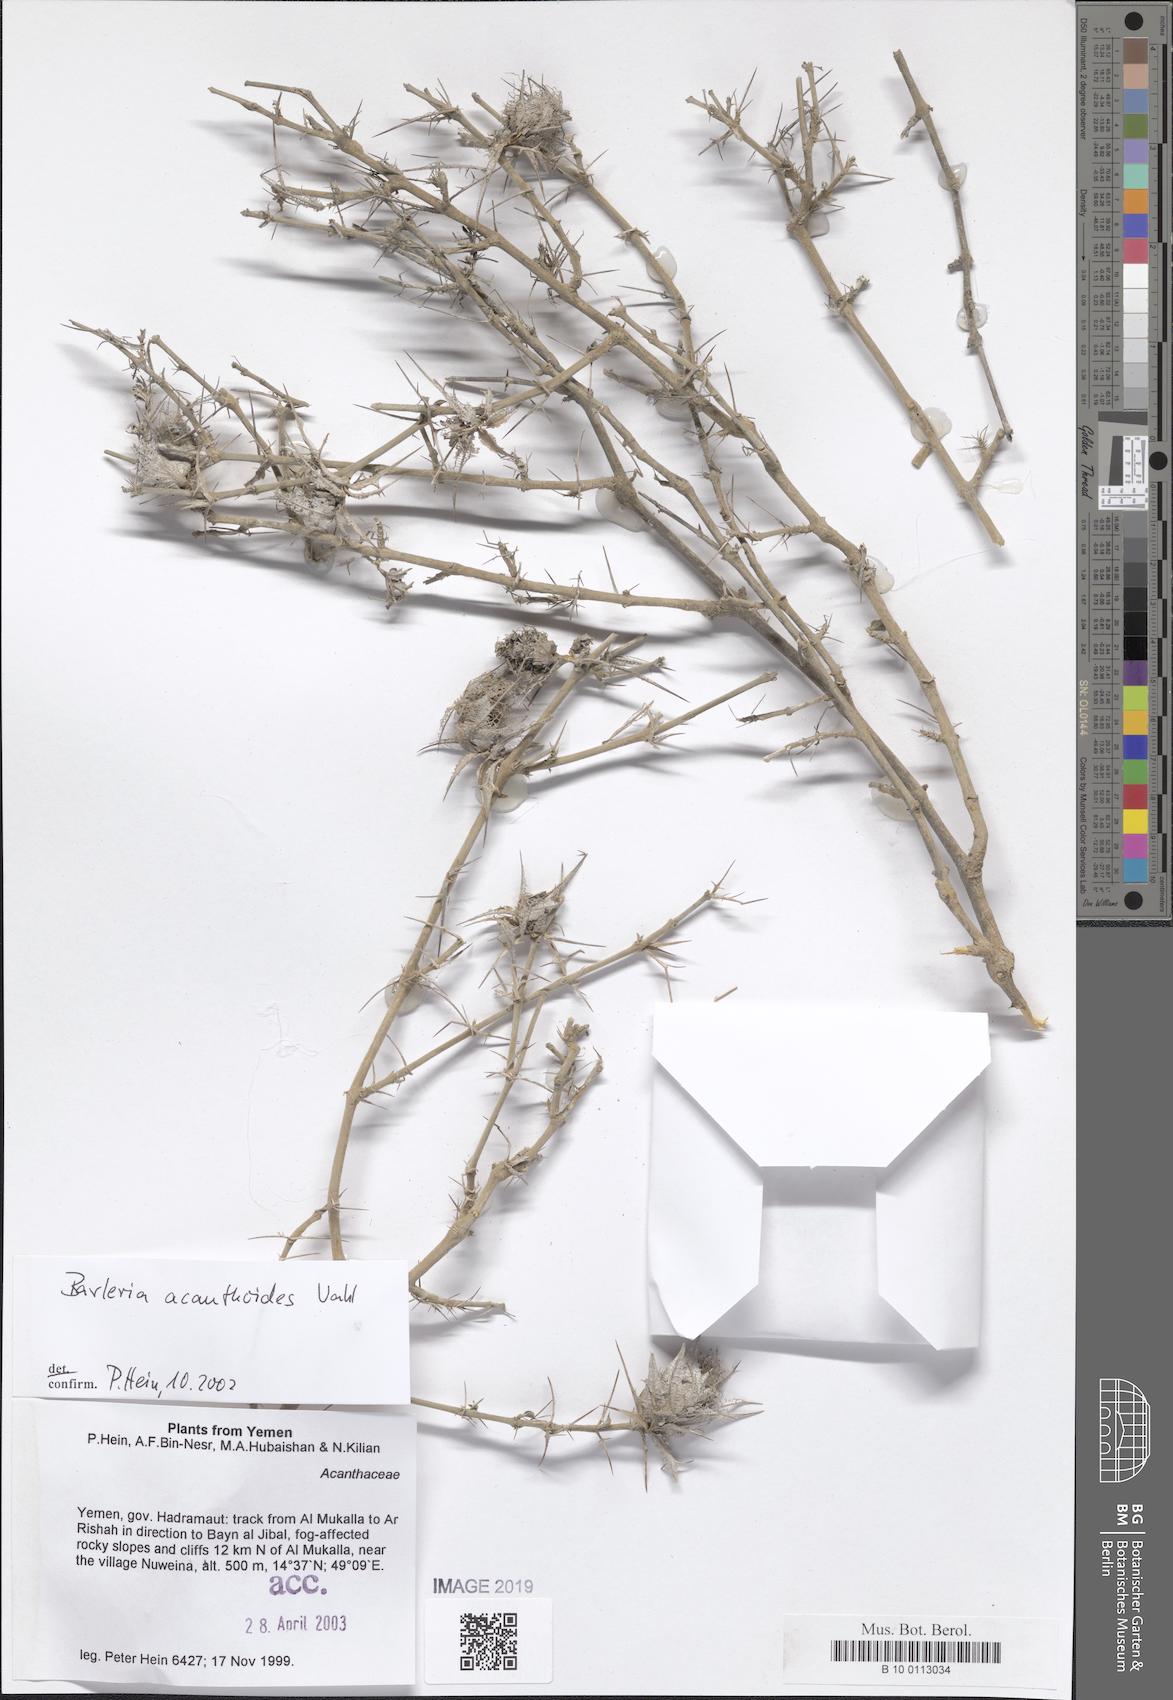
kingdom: Plantae
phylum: Tracheophyta
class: Magnoliopsida
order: Lamiales
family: Acanthaceae
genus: Barleria
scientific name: Barleria acanthoides
